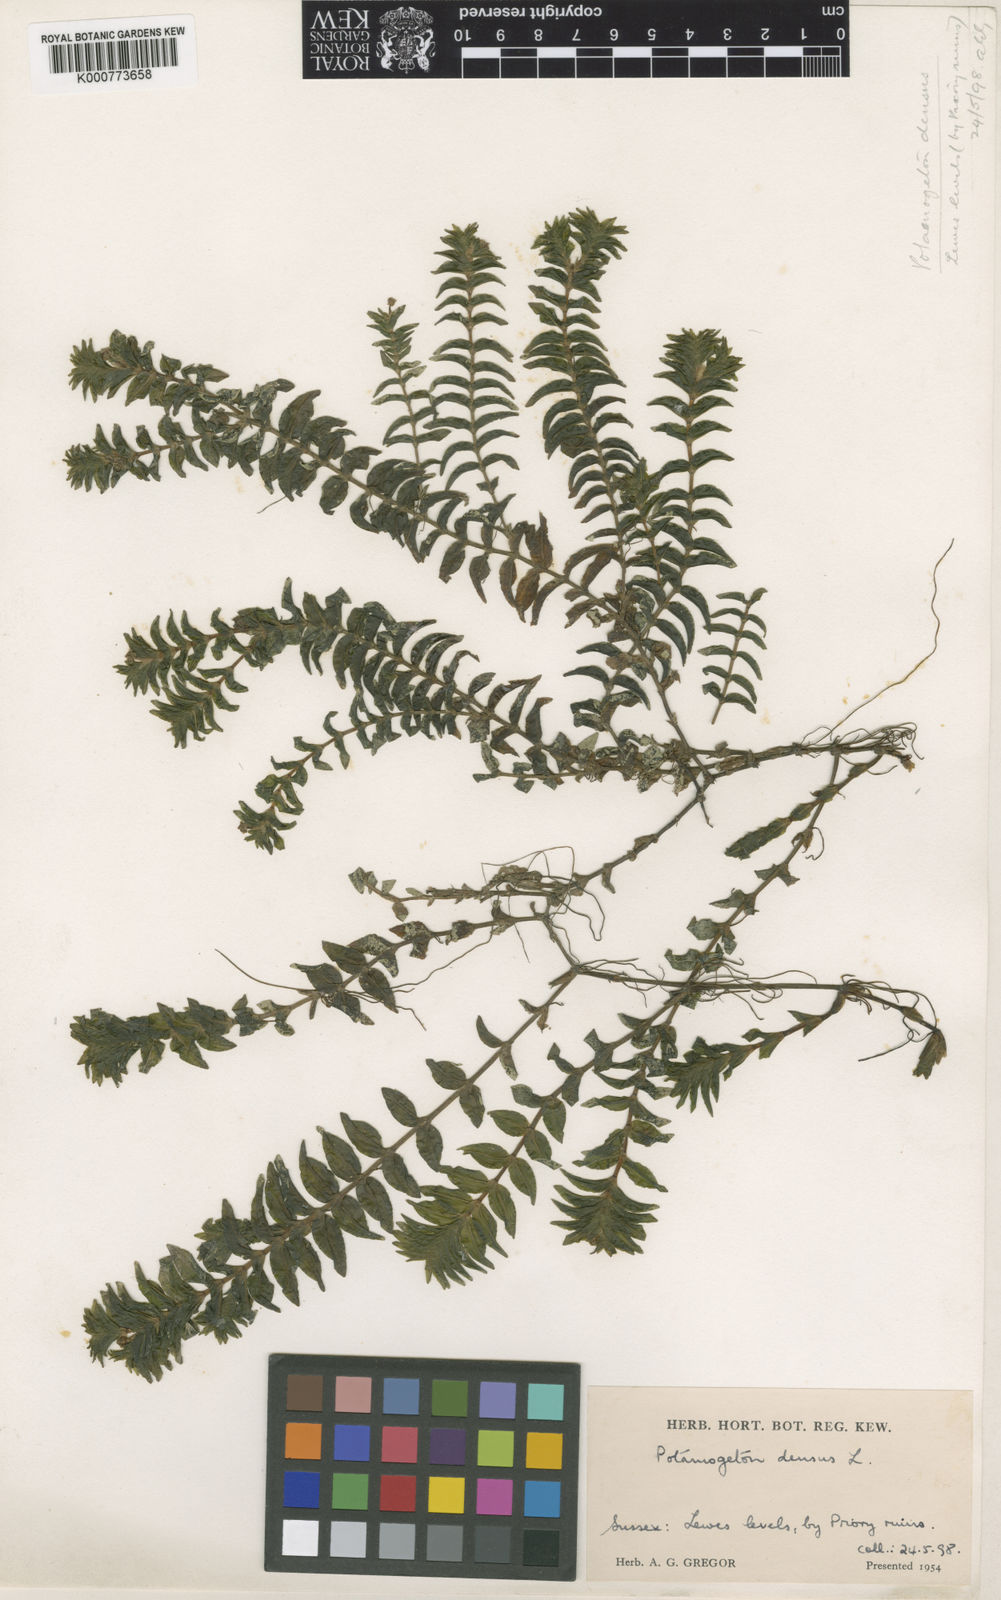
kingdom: Plantae
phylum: Tracheophyta
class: Liliopsida
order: Alismatales
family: Potamogetonaceae
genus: Groenlandia
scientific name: Groenlandia densa
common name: Opposite-leaved pondweed
